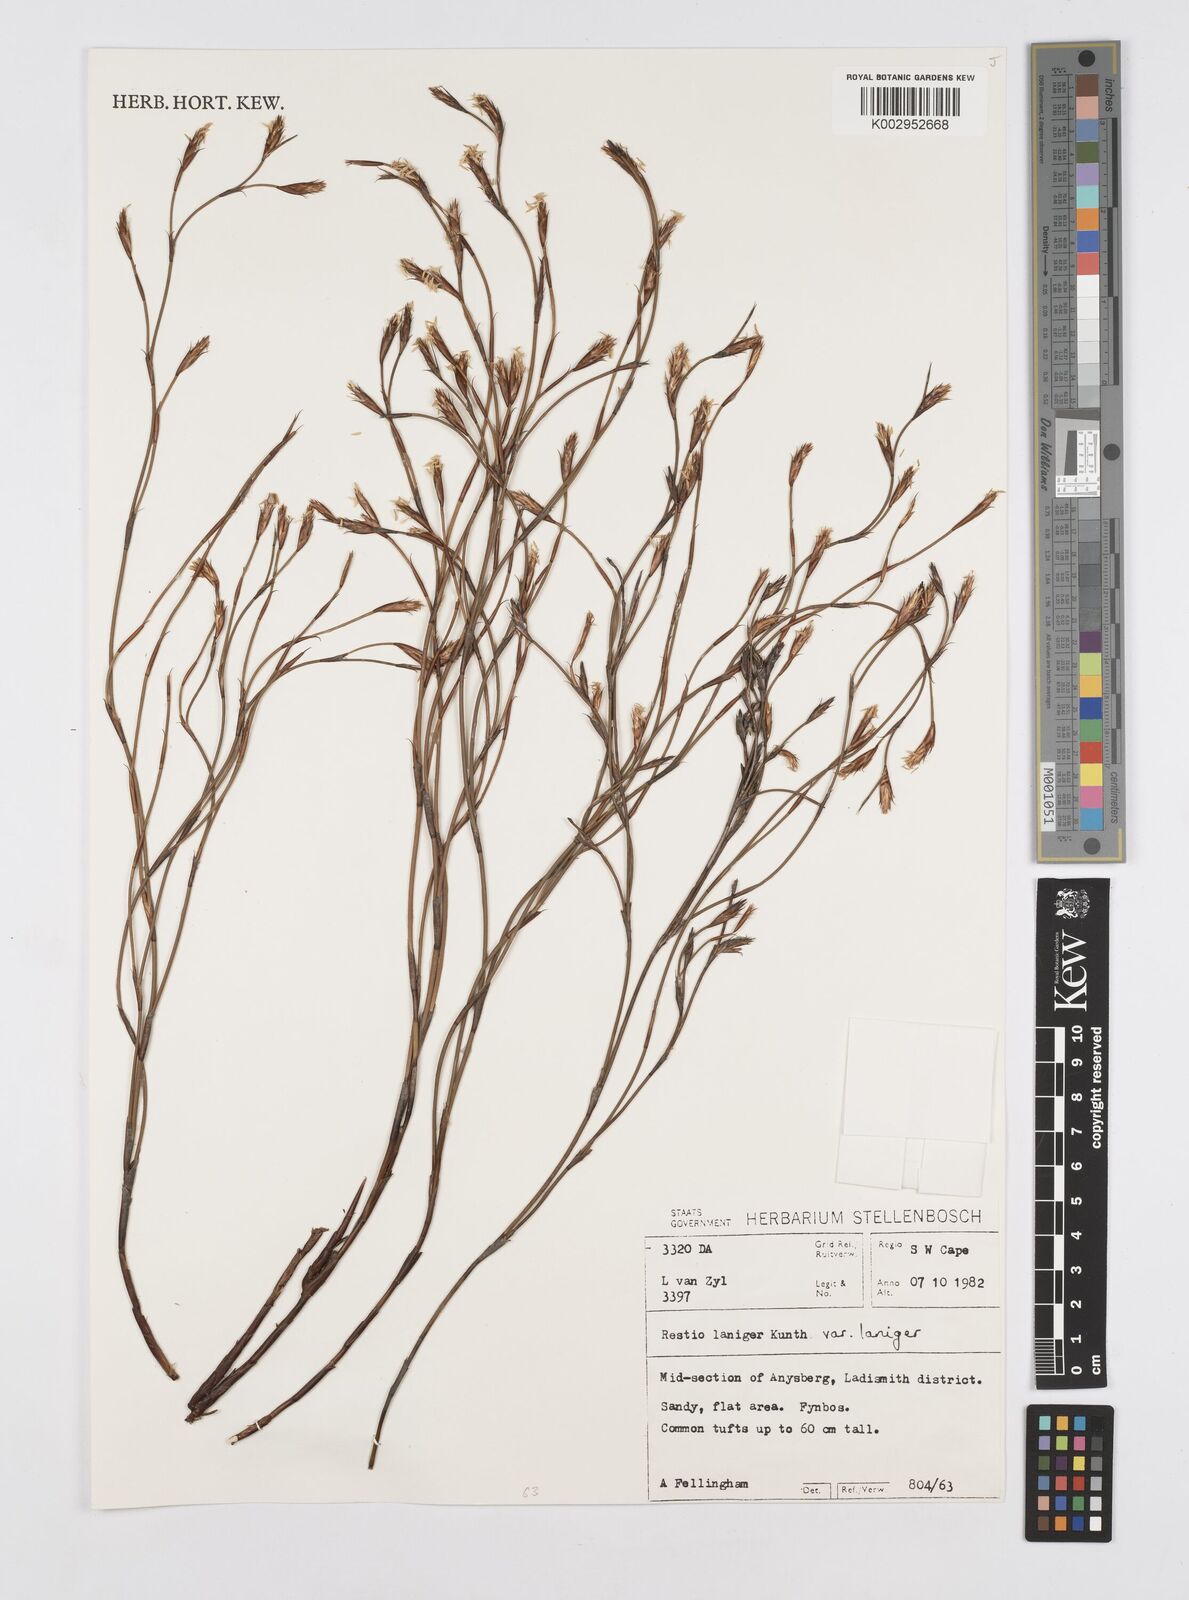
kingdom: Plantae
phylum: Tracheophyta
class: Liliopsida
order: Poales
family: Restionaceae
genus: Restio
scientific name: Restio laniger
